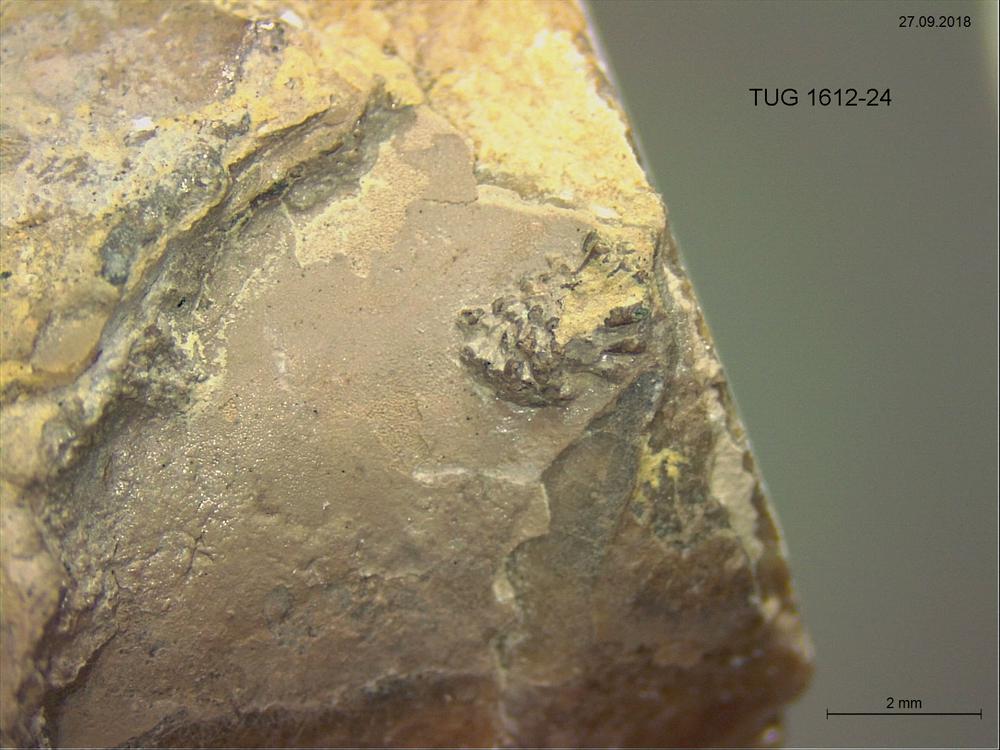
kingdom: Animalia
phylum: Bryozoa
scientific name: Bryozoa
